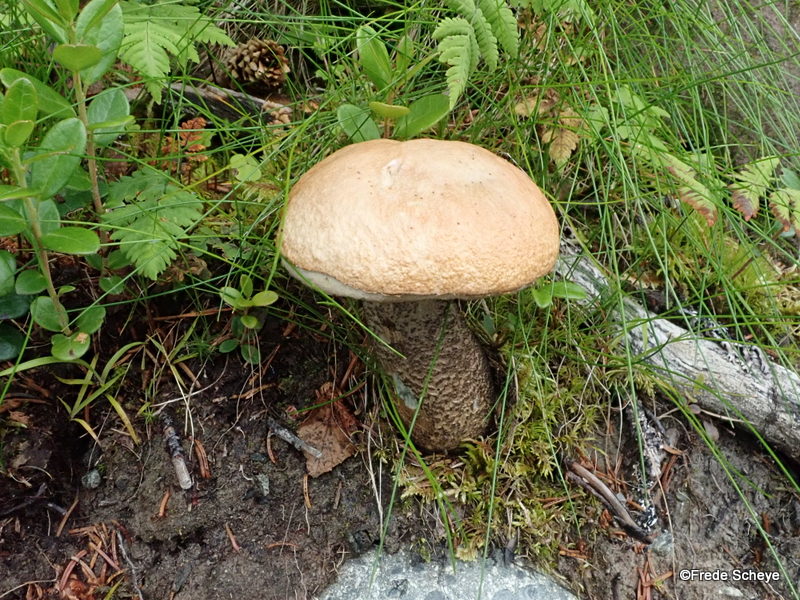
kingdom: Fungi
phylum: Basidiomycota
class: Agaricomycetes
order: Boletales
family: Boletaceae
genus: Leccinum
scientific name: Leccinum versipelle
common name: orange skælrørhat
